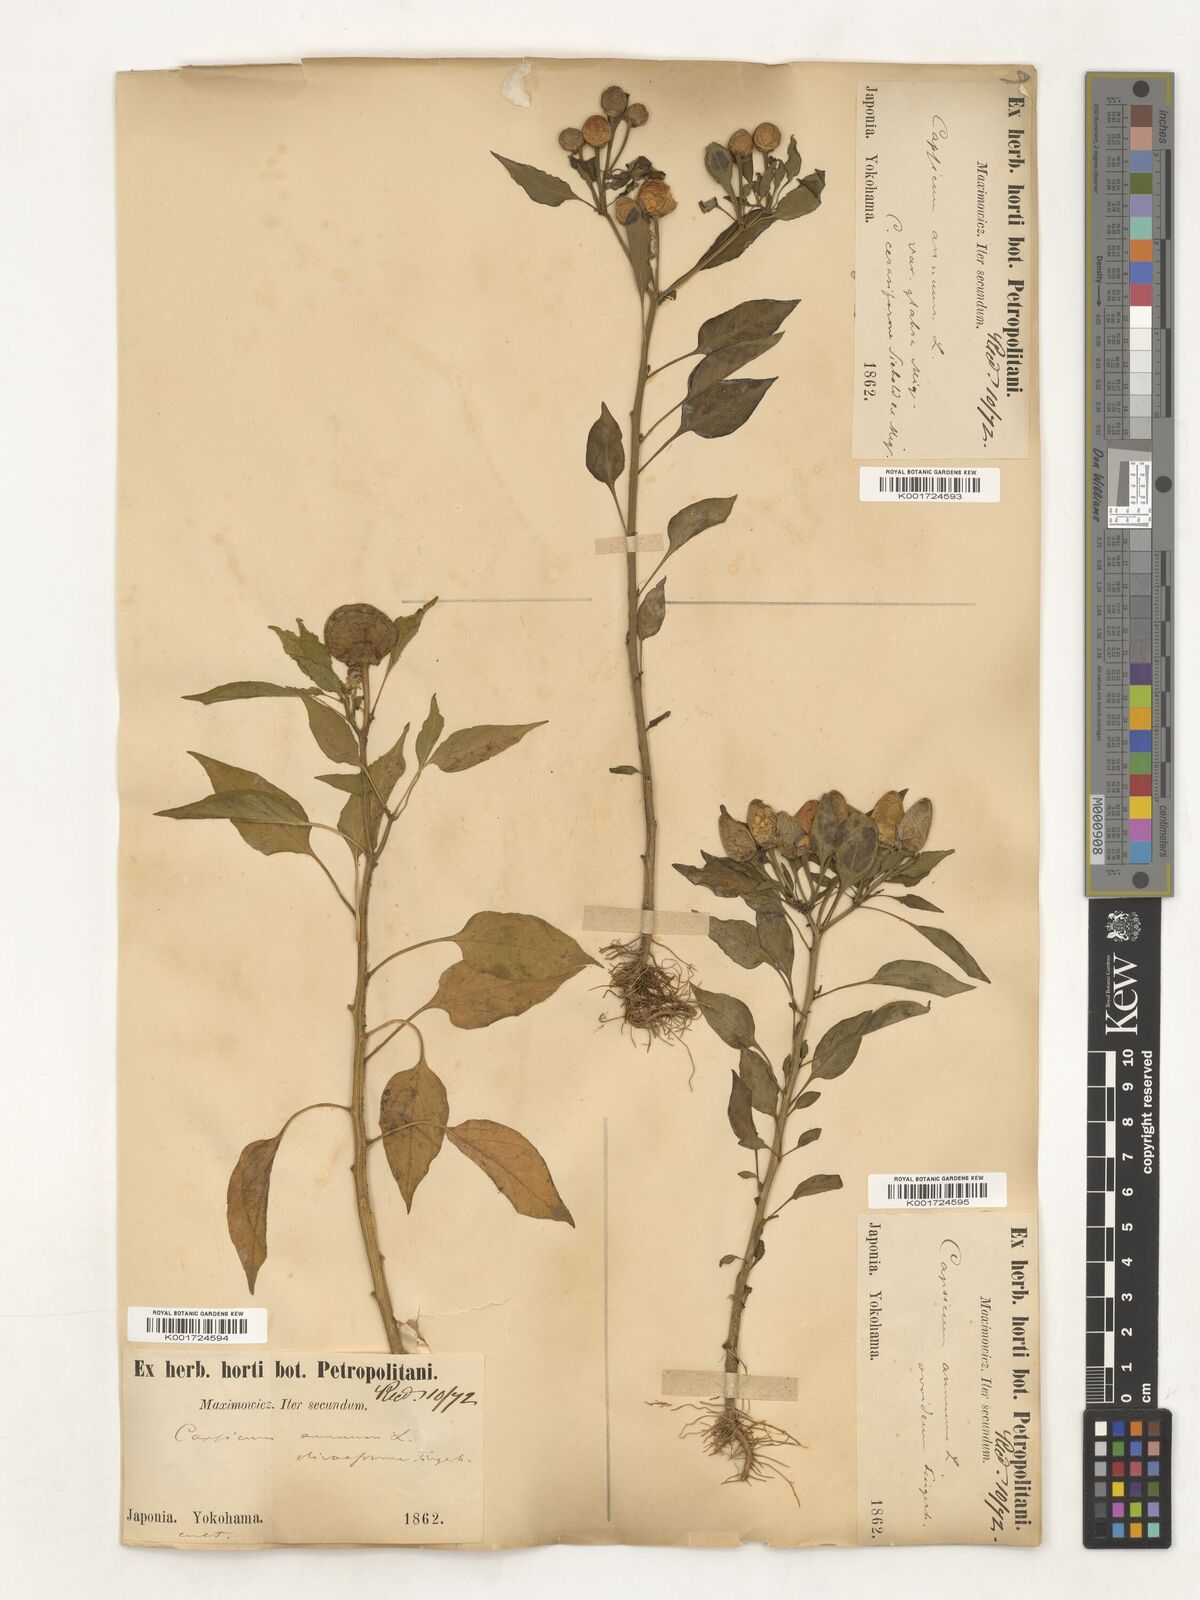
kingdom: Plantae
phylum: Tracheophyta
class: Magnoliopsida
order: Solanales
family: Solanaceae
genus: Capsicum
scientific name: Capsicum annuum
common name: Sweet pepper
